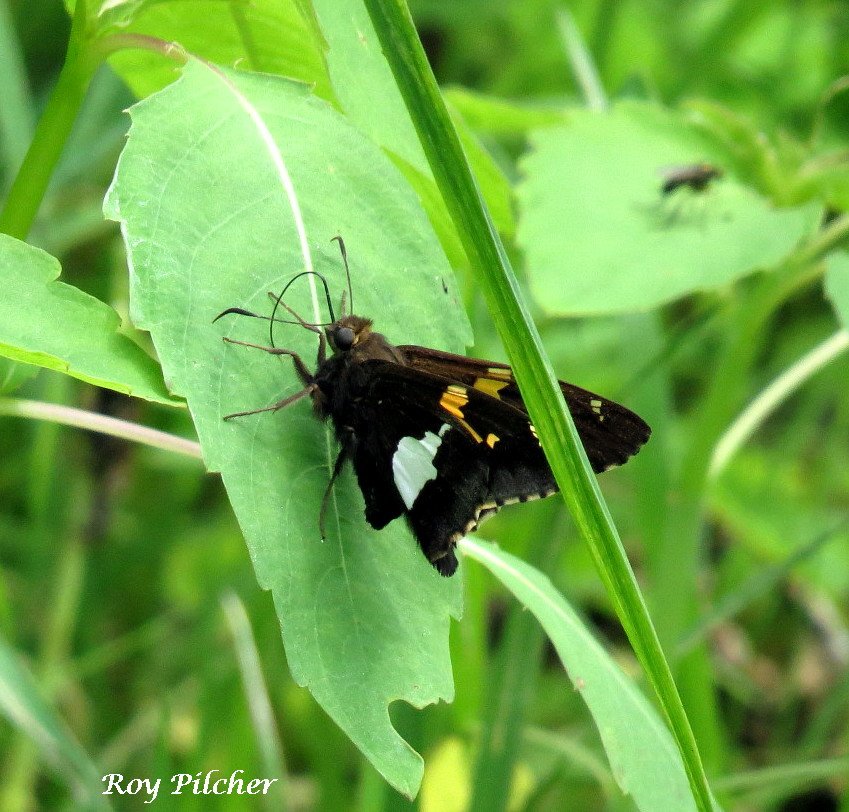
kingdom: Animalia
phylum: Arthropoda
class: Insecta
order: Lepidoptera
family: Hesperiidae
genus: Epargyreus
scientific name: Epargyreus clarus
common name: Silver-spotted Skipper
